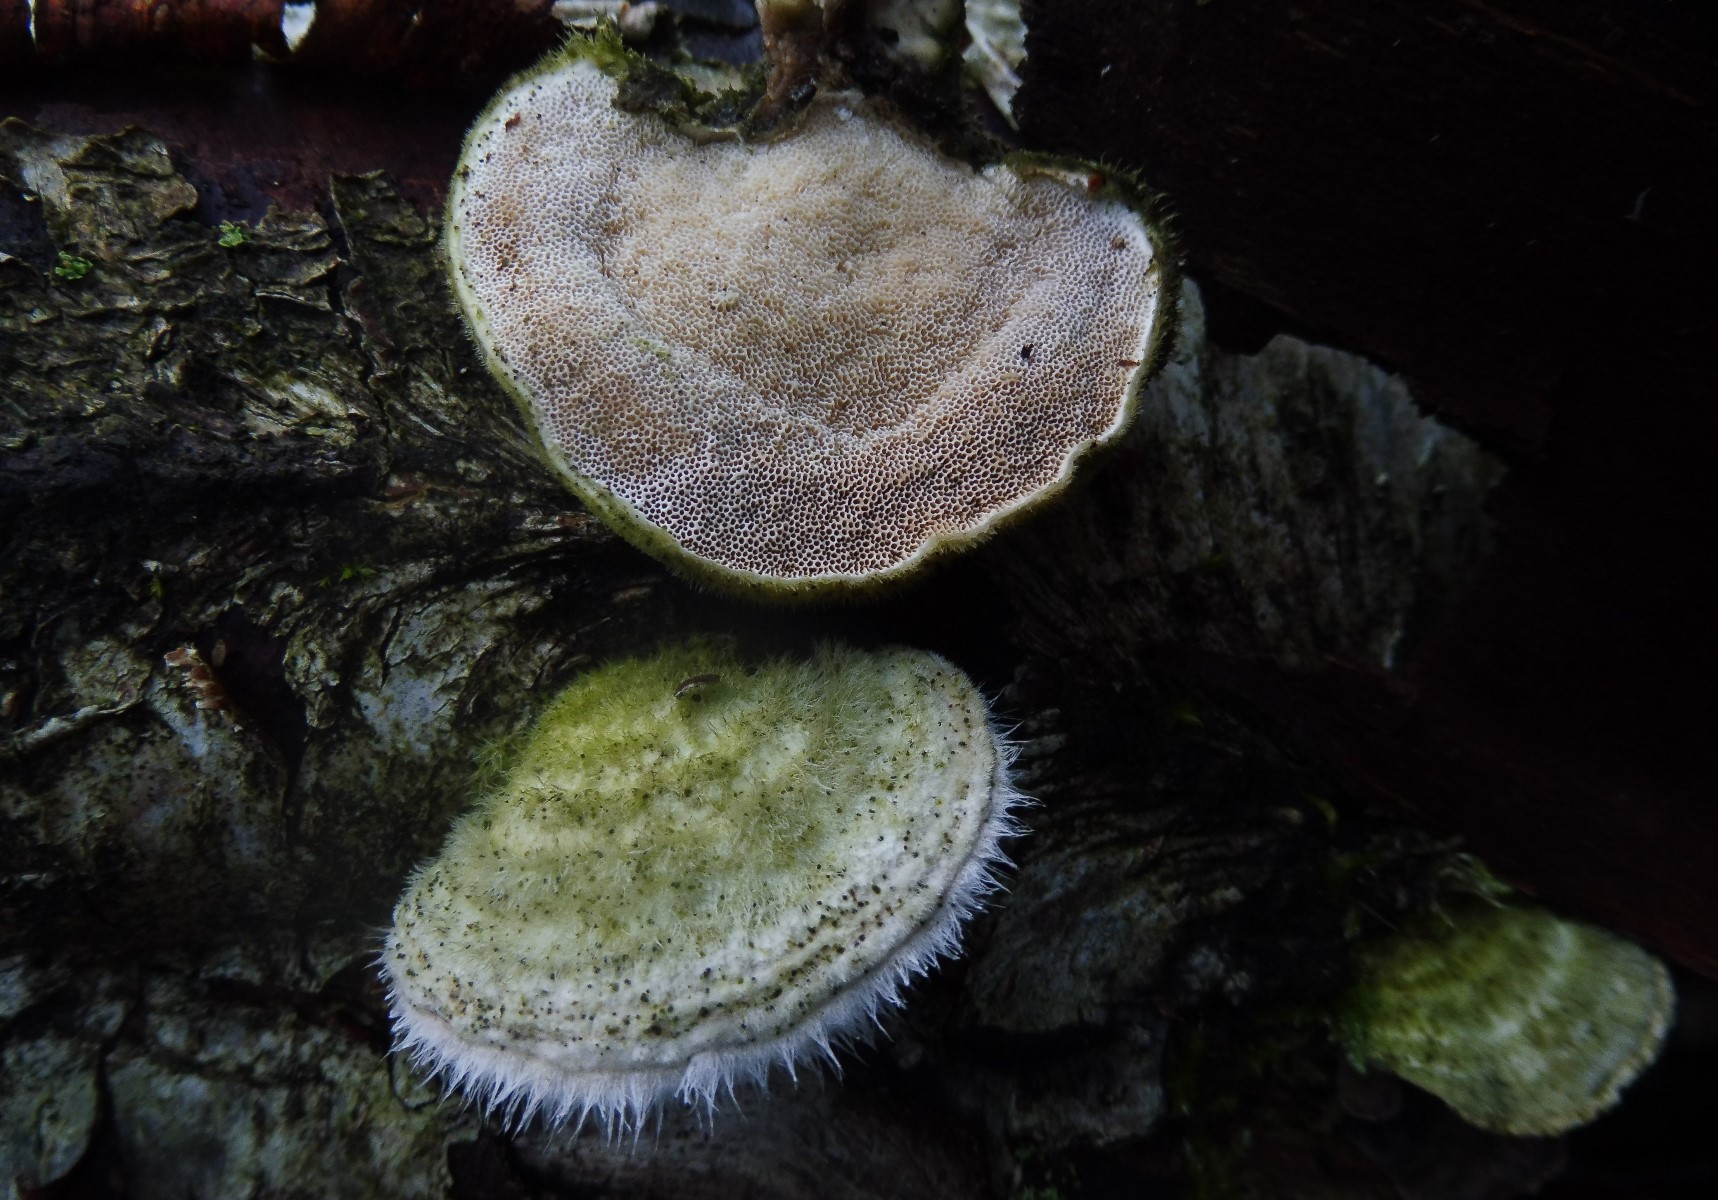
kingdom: Fungi
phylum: Basidiomycota
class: Agaricomycetes
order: Polyporales
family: Polyporaceae
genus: Trametes
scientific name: Trametes hirsuta
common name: håret læderporesvamp
